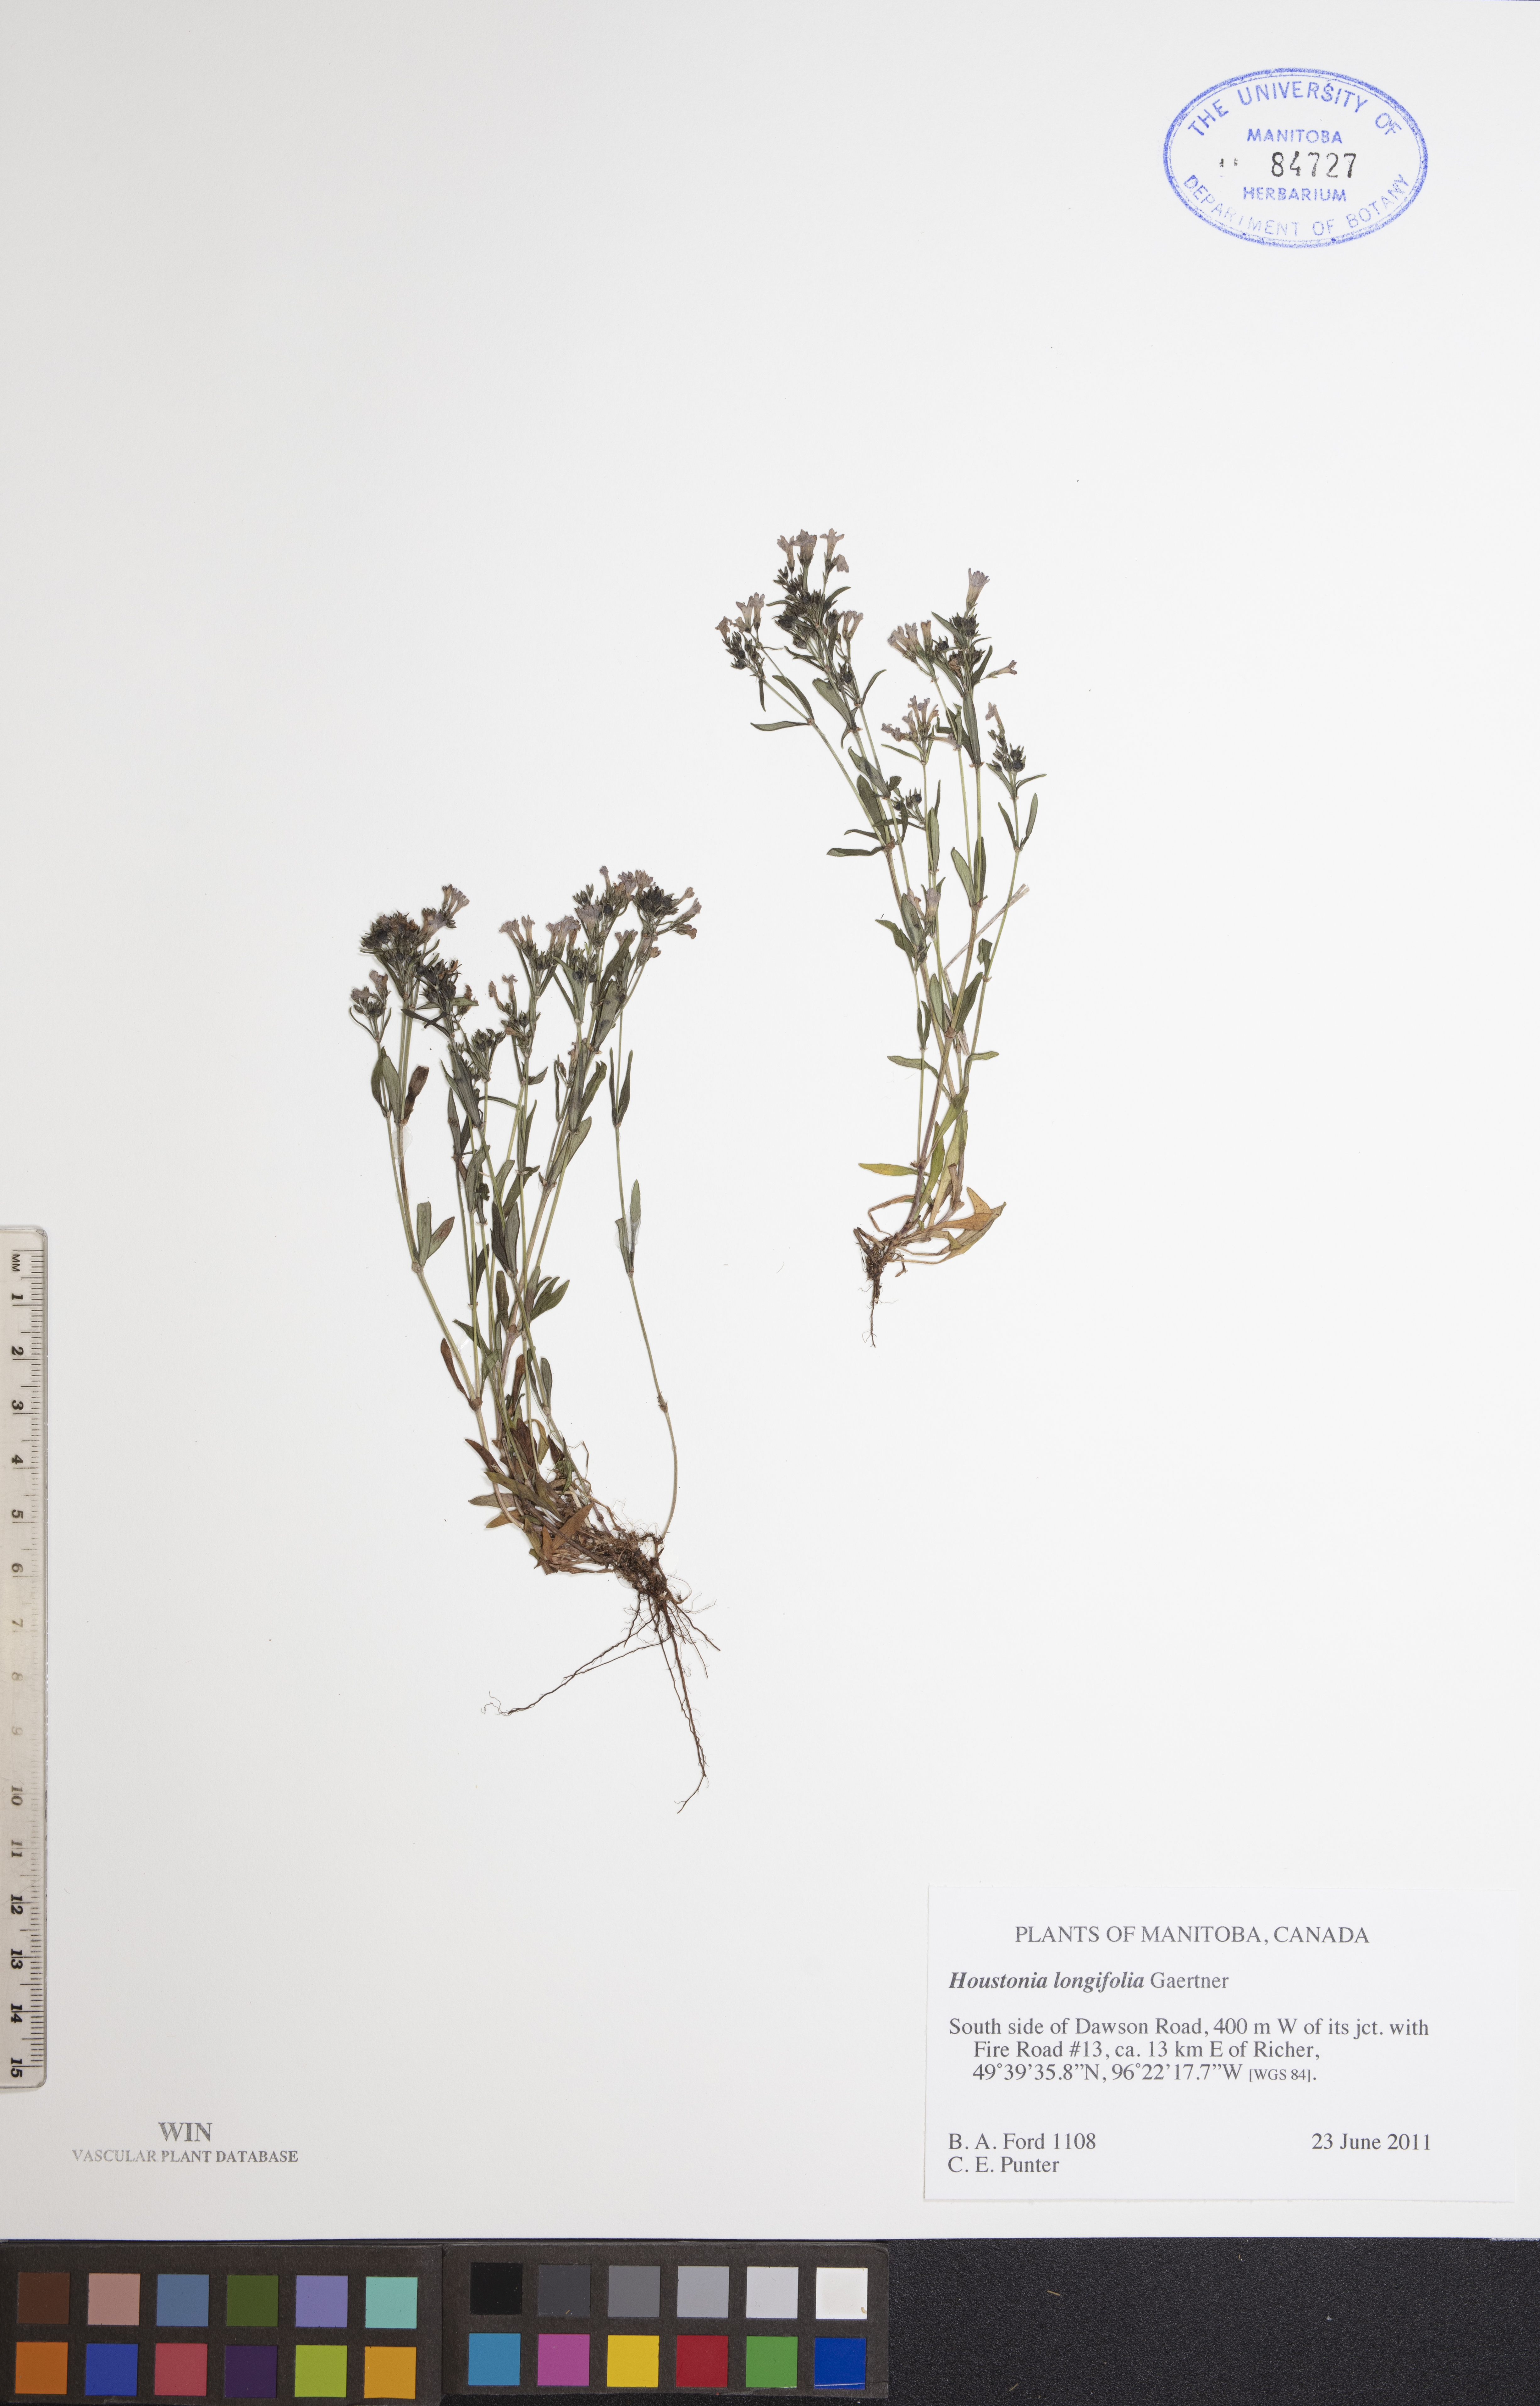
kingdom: Plantae
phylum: Tracheophyta
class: Magnoliopsida
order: Gentianales
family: Rubiaceae
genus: Houstonia
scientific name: Houstonia longifolia
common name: Long-leaved bluets
